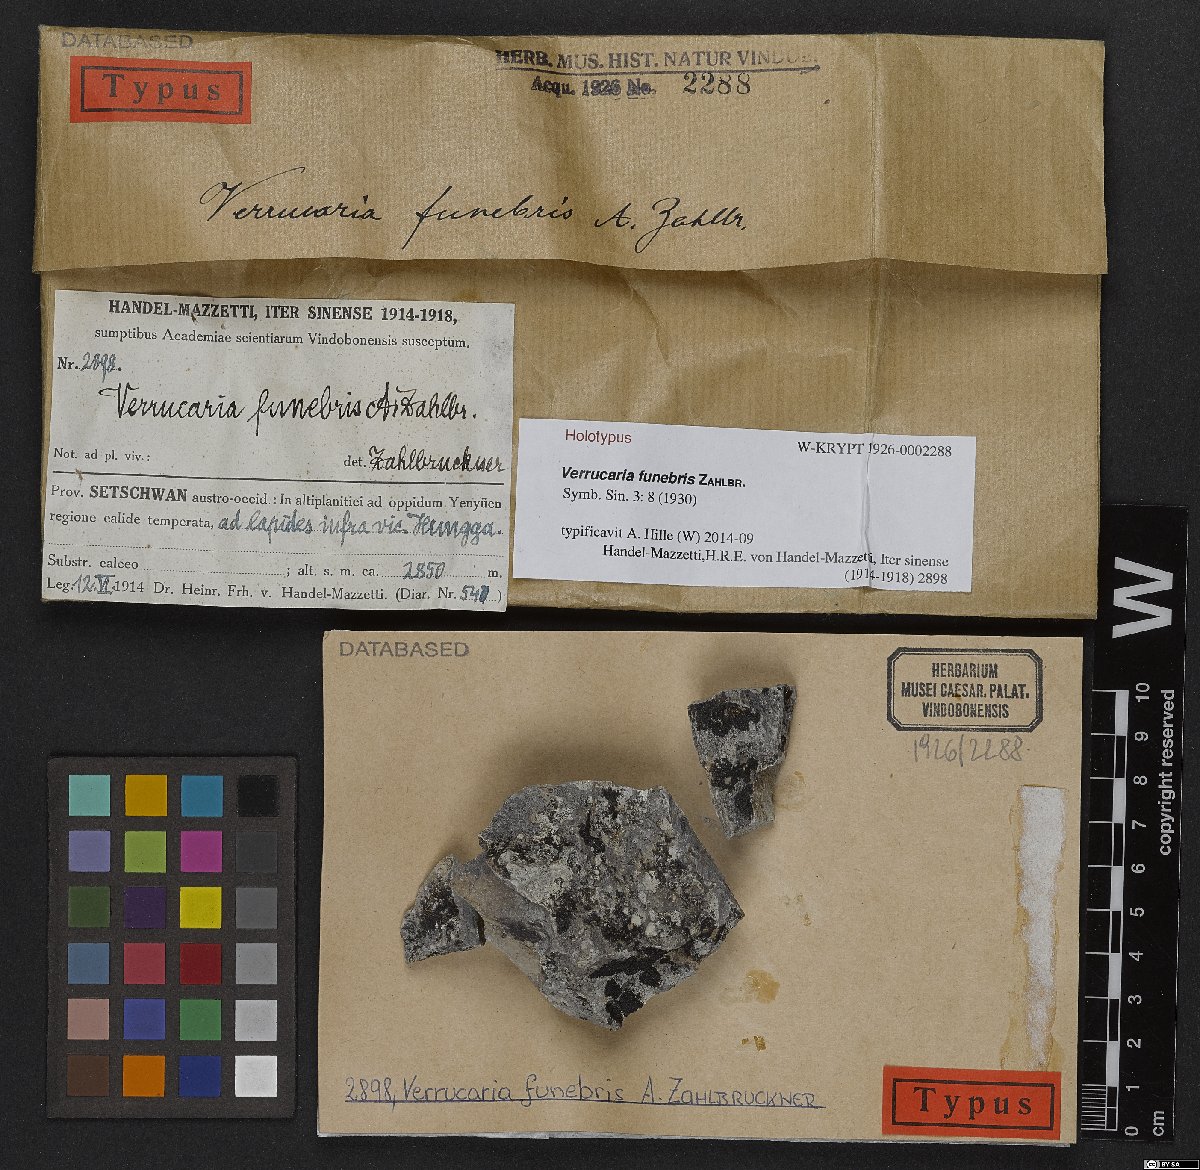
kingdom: Fungi
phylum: Ascomycota
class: Eurotiomycetes
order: Verrucariales
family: Verrucariaceae
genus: Verrucaria
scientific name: Verrucaria
